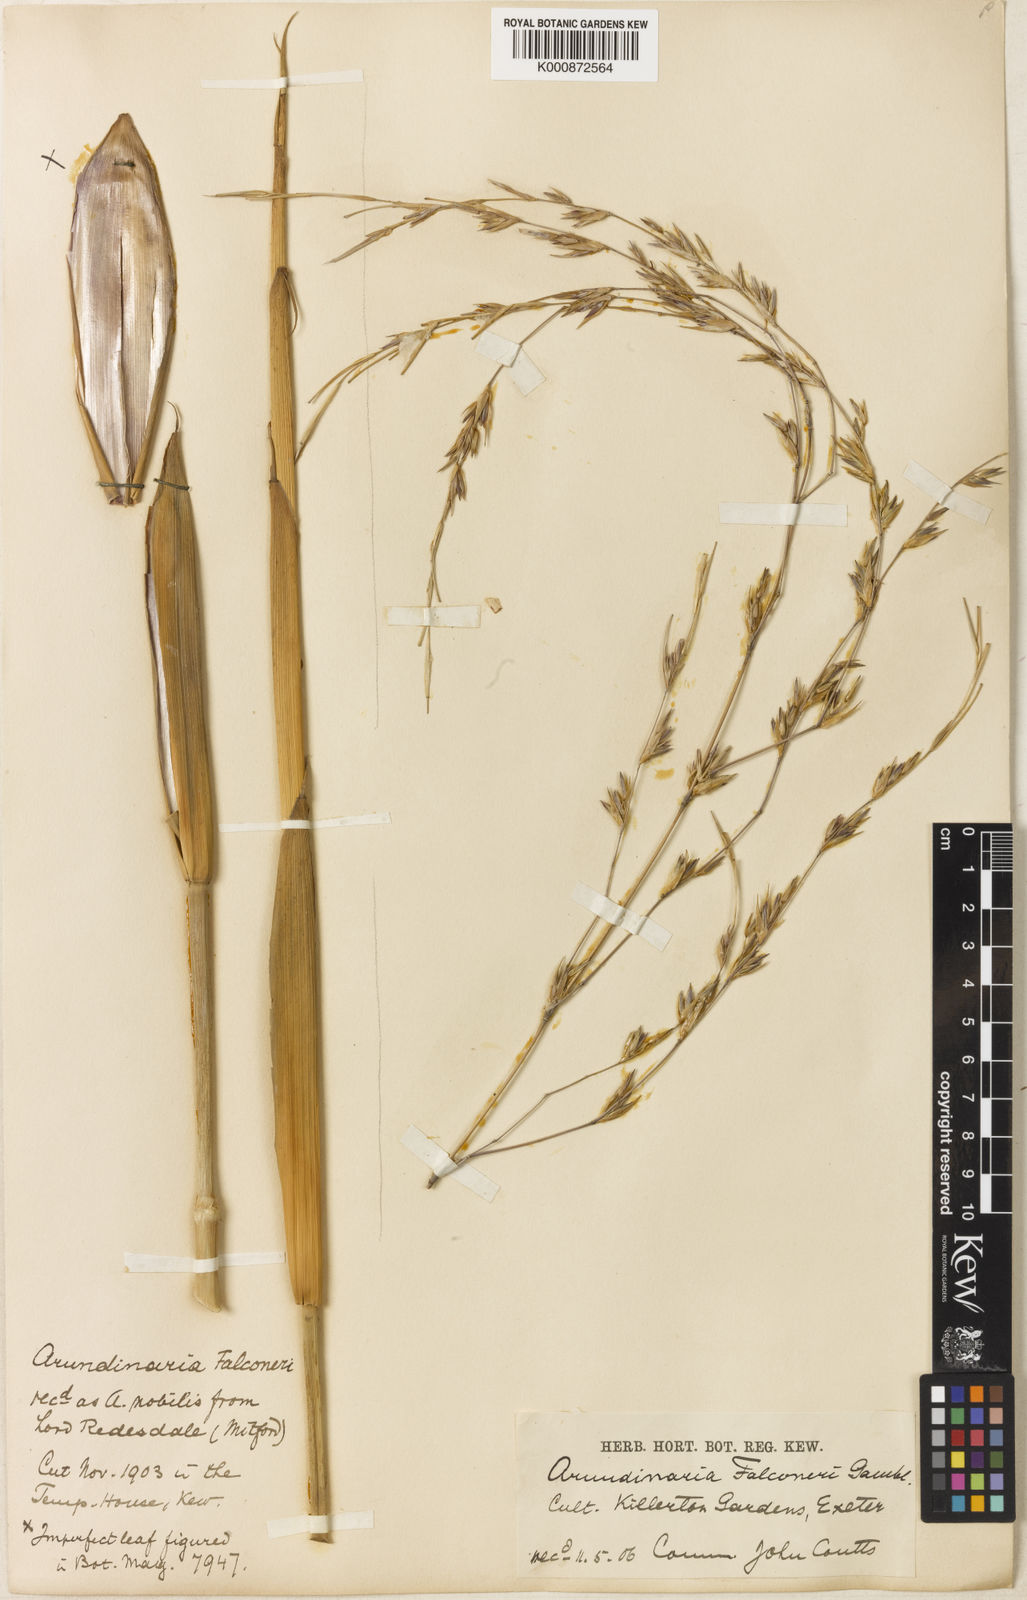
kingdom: Plantae
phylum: Tracheophyta
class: Liliopsida
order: Poales
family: Poaceae
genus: Himalayacalamus
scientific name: Himalayacalamus falconeri
